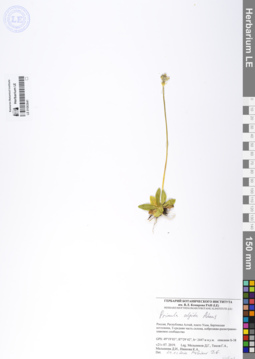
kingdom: Plantae
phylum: Tracheophyta
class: Magnoliopsida
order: Ericales
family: Primulaceae
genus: Primula
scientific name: Primula algida
